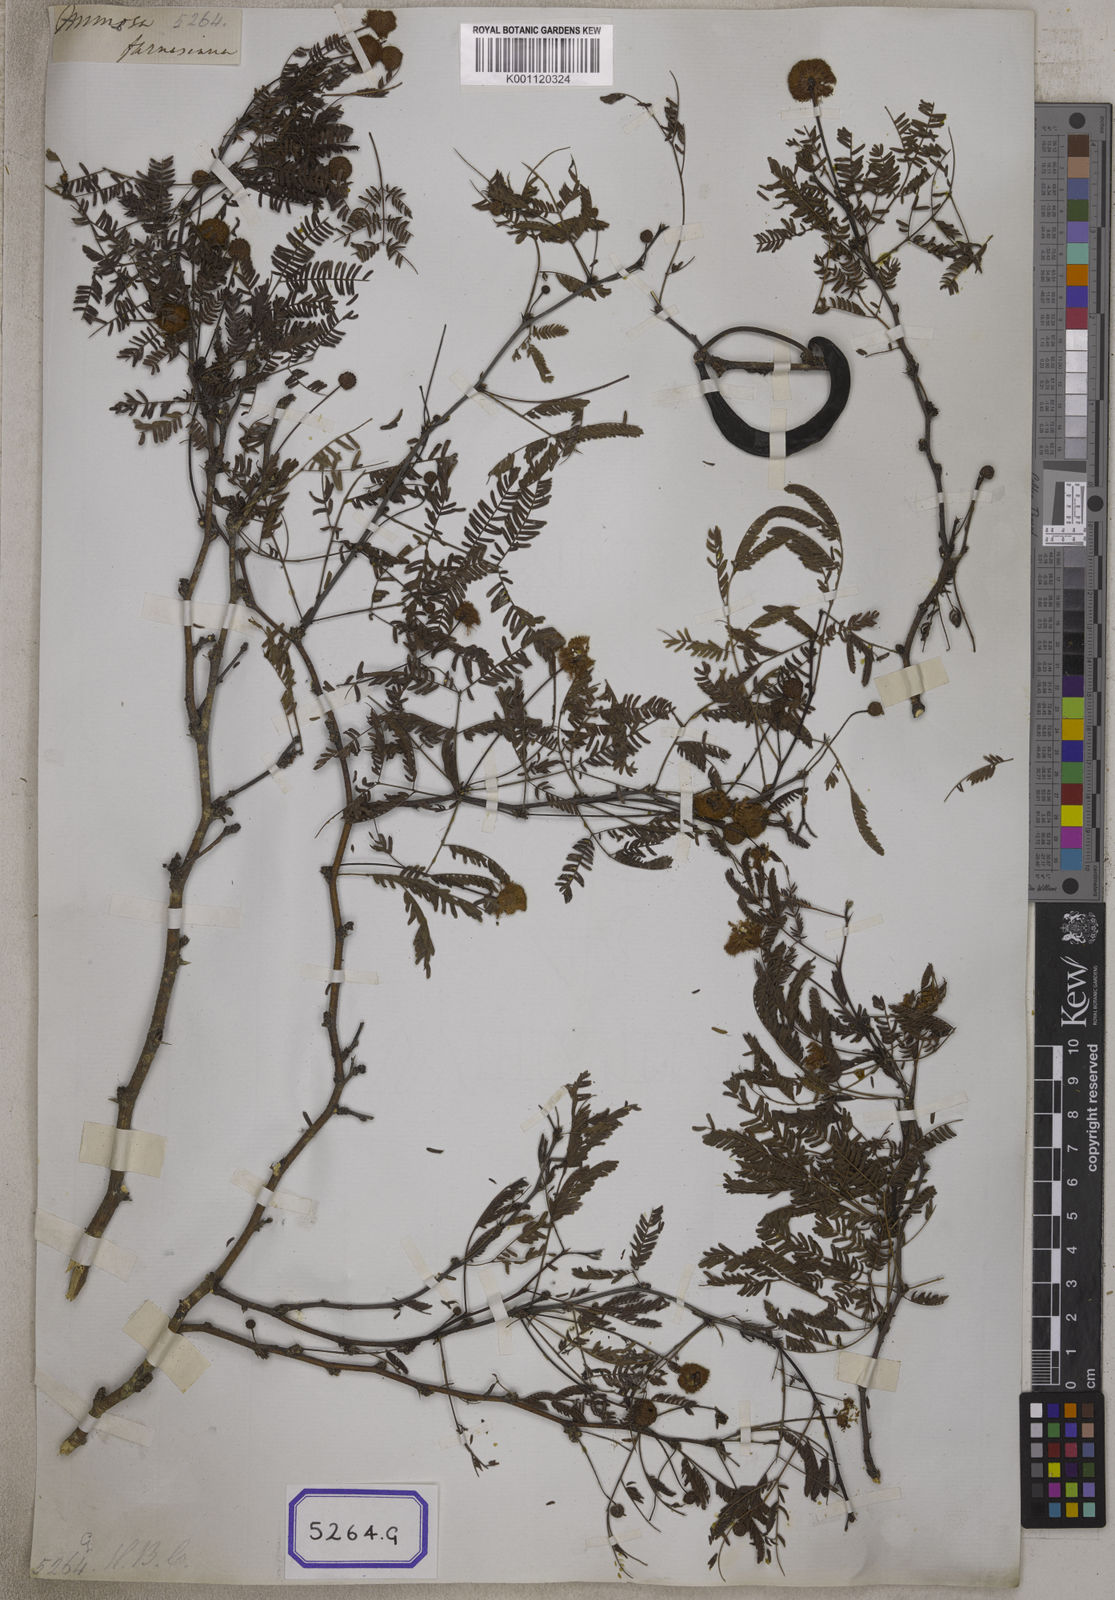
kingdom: Plantae
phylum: Tracheophyta
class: Magnoliopsida
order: Fabales
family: Fabaceae
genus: Vachellia
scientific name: Vachellia farnesiana
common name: Sweet acacia
